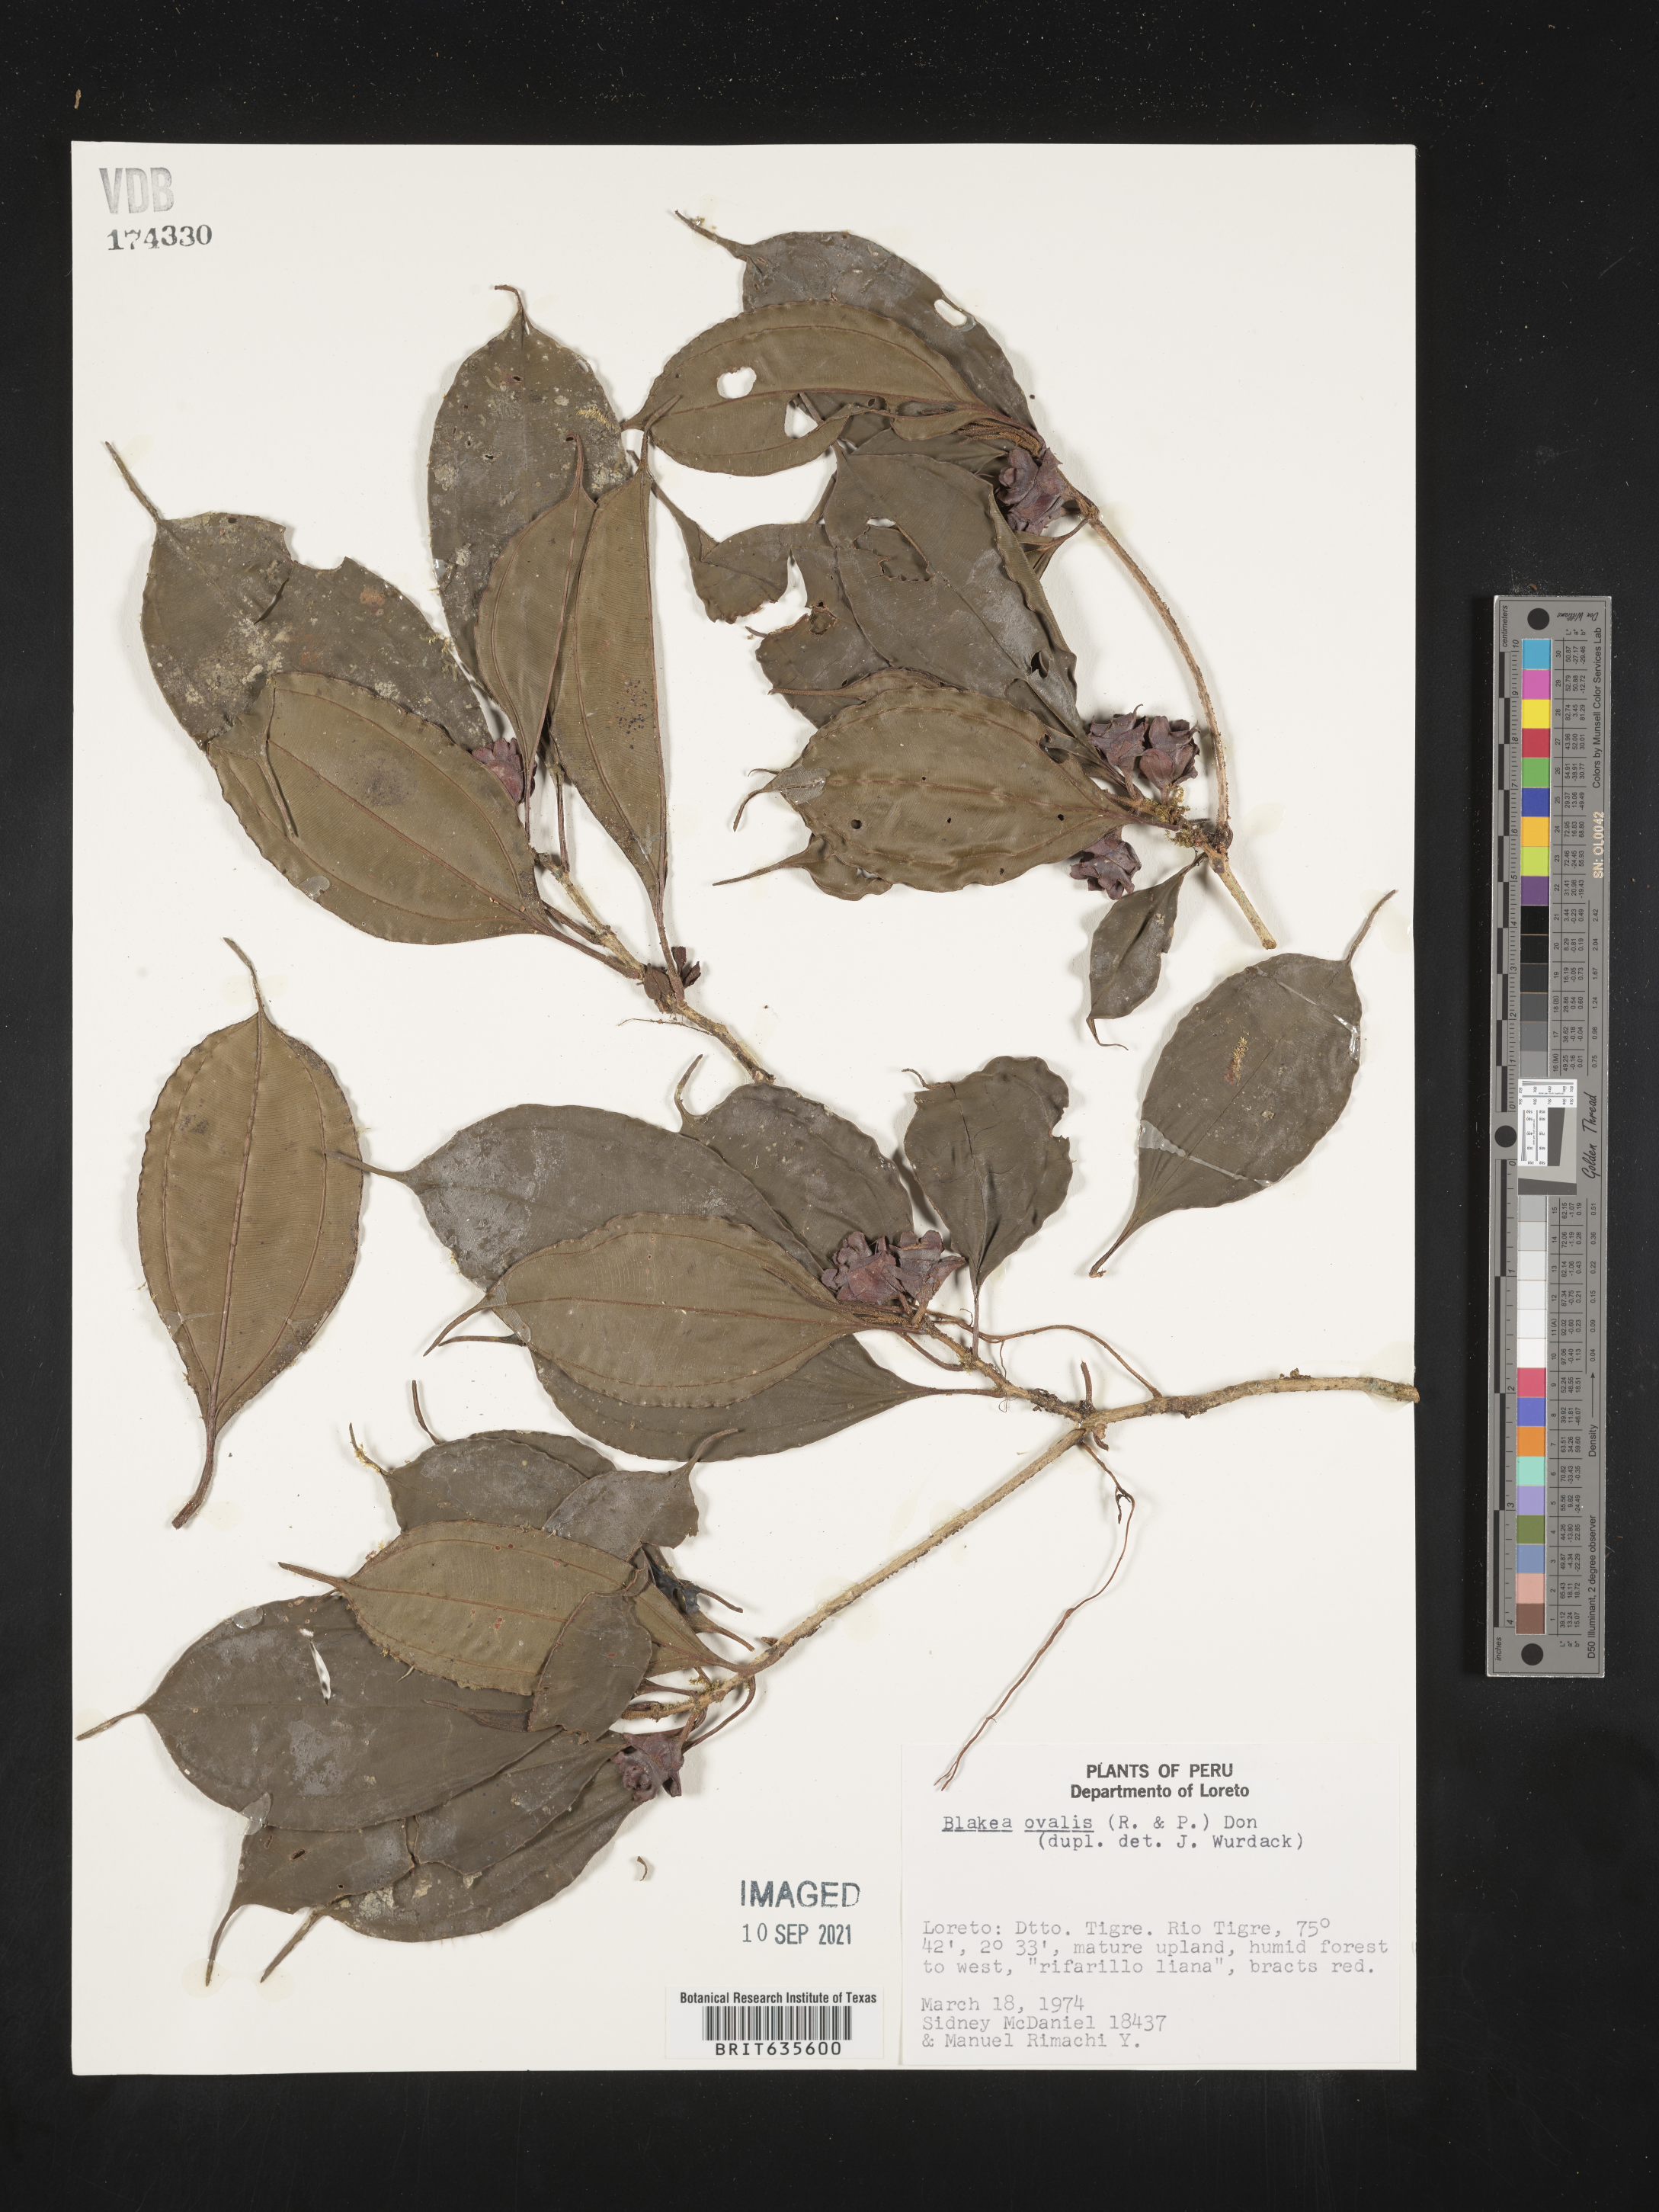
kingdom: Plantae
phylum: Tracheophyta
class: Magnoliopsida
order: Myrtales
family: Melastomataceae
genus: Blakea
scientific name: Blakea
